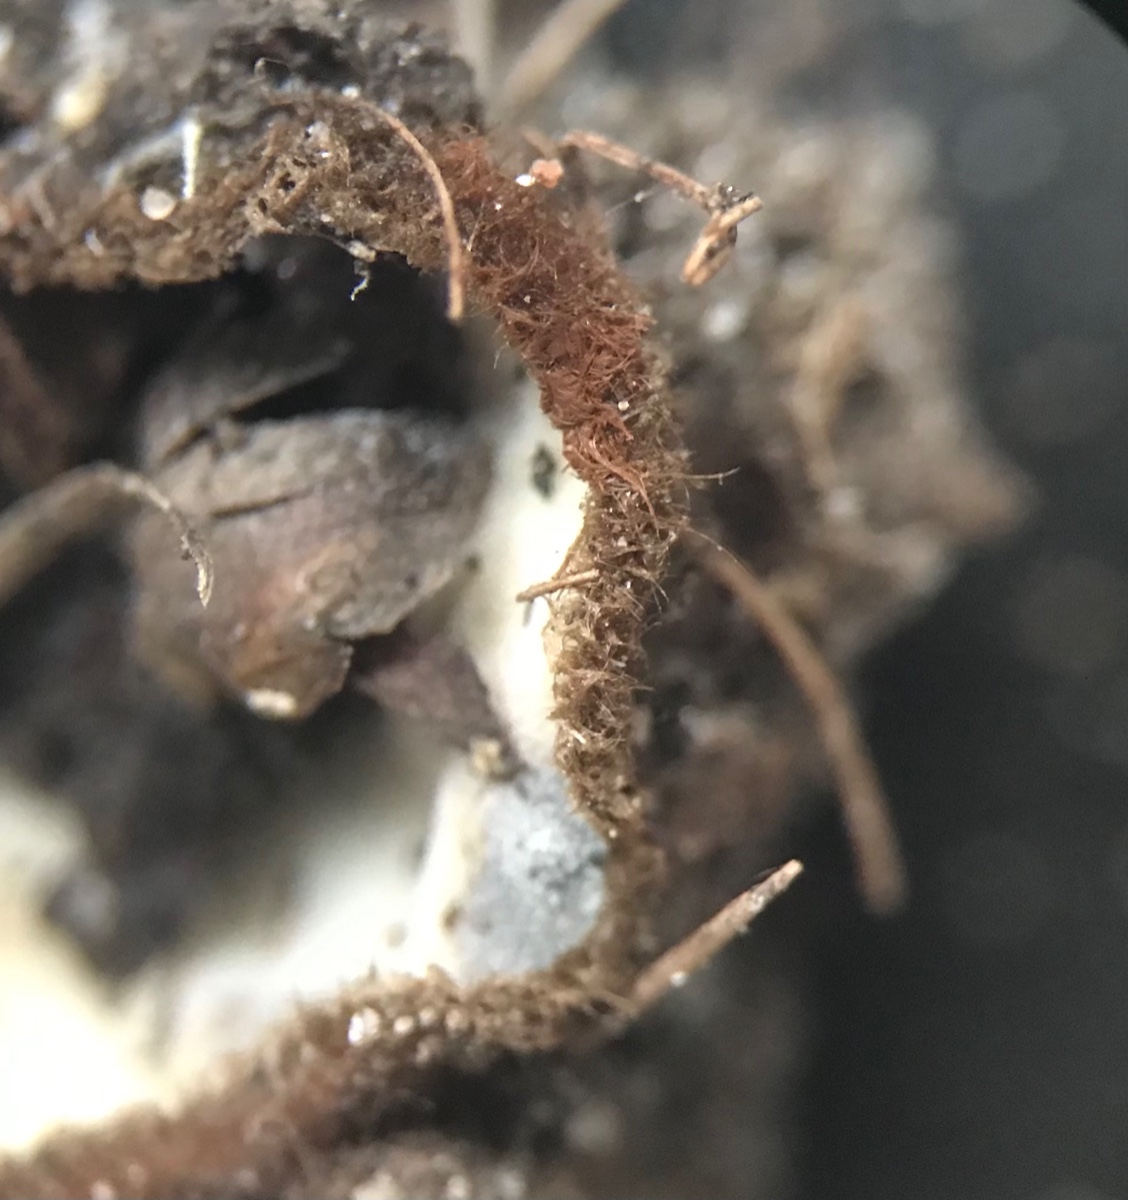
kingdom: Fungi
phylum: Ascomycota
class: Pezizomycetes
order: Pezizales
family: Pyronemataceae
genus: Humaria
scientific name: Humaria hemisphaerica
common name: halvkugleformet børstebæger
